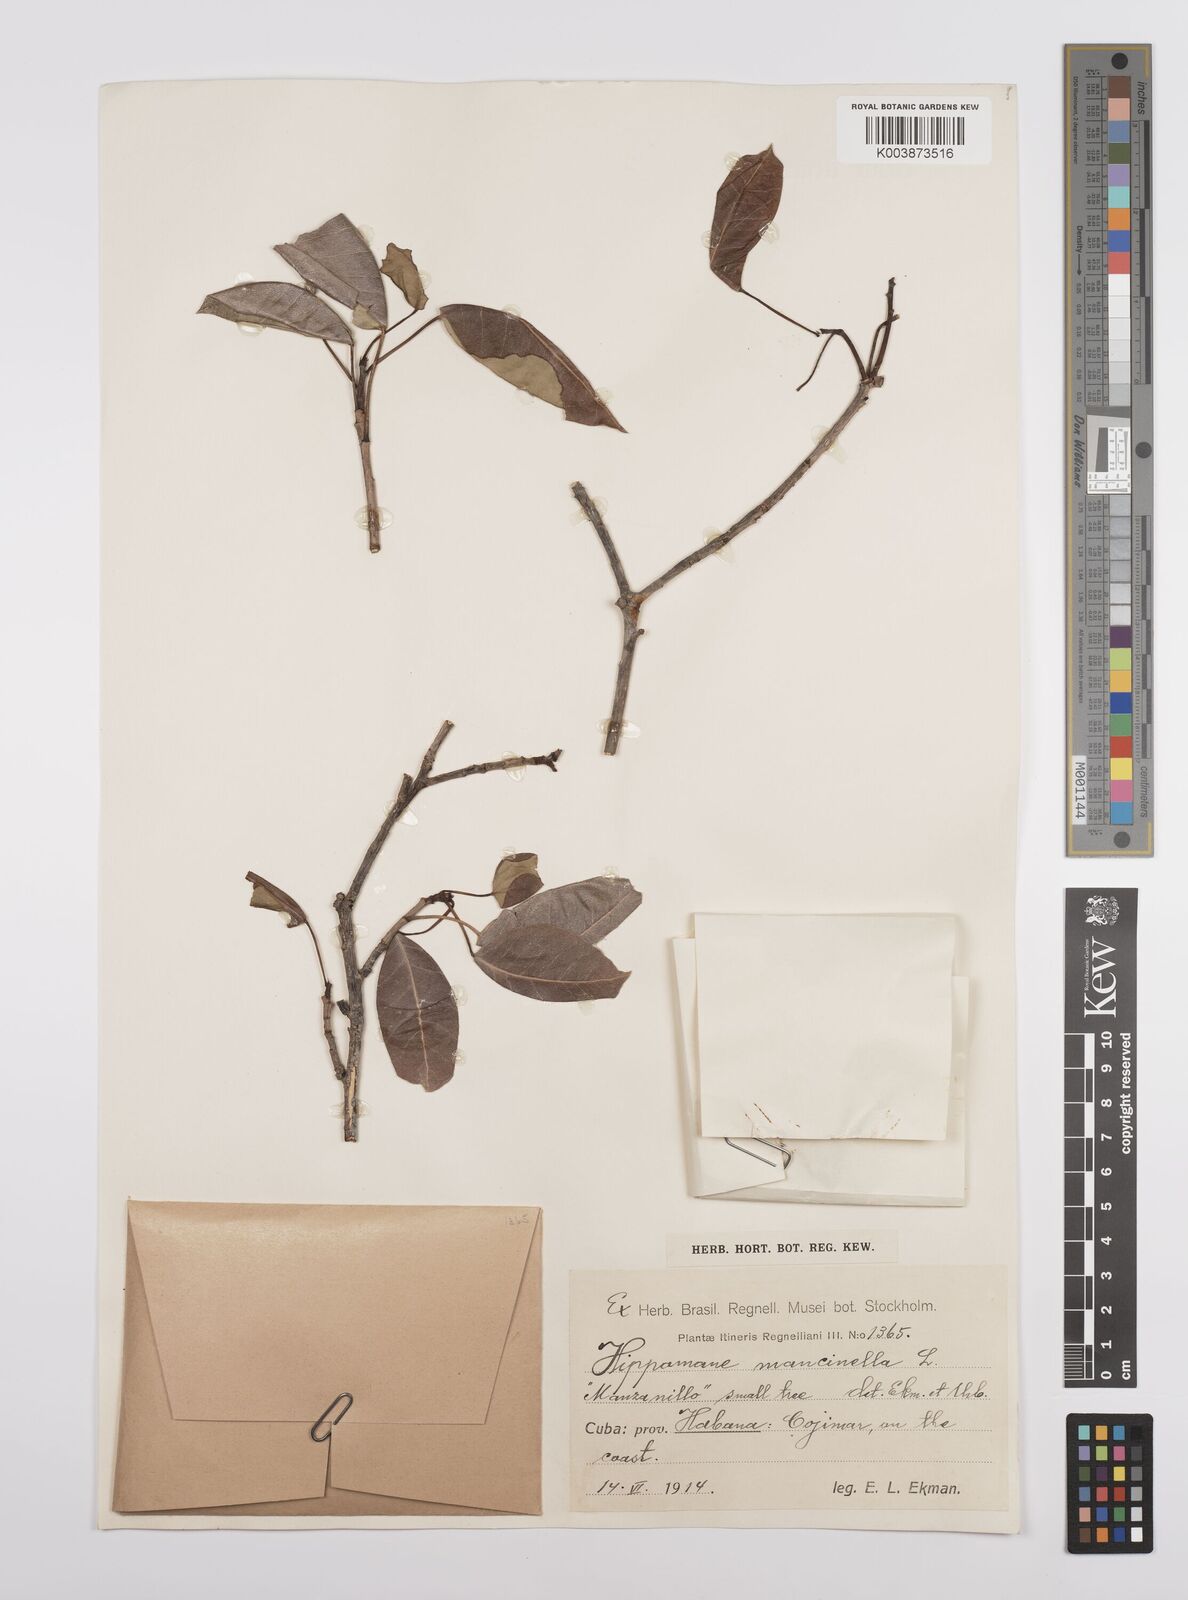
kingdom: Plantae
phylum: Tracheophyta
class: Magnoliopsida
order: Malpighiales
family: Euphorbiaceae
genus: Hippomane
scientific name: Hippomane mancinella
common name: Manchineel
